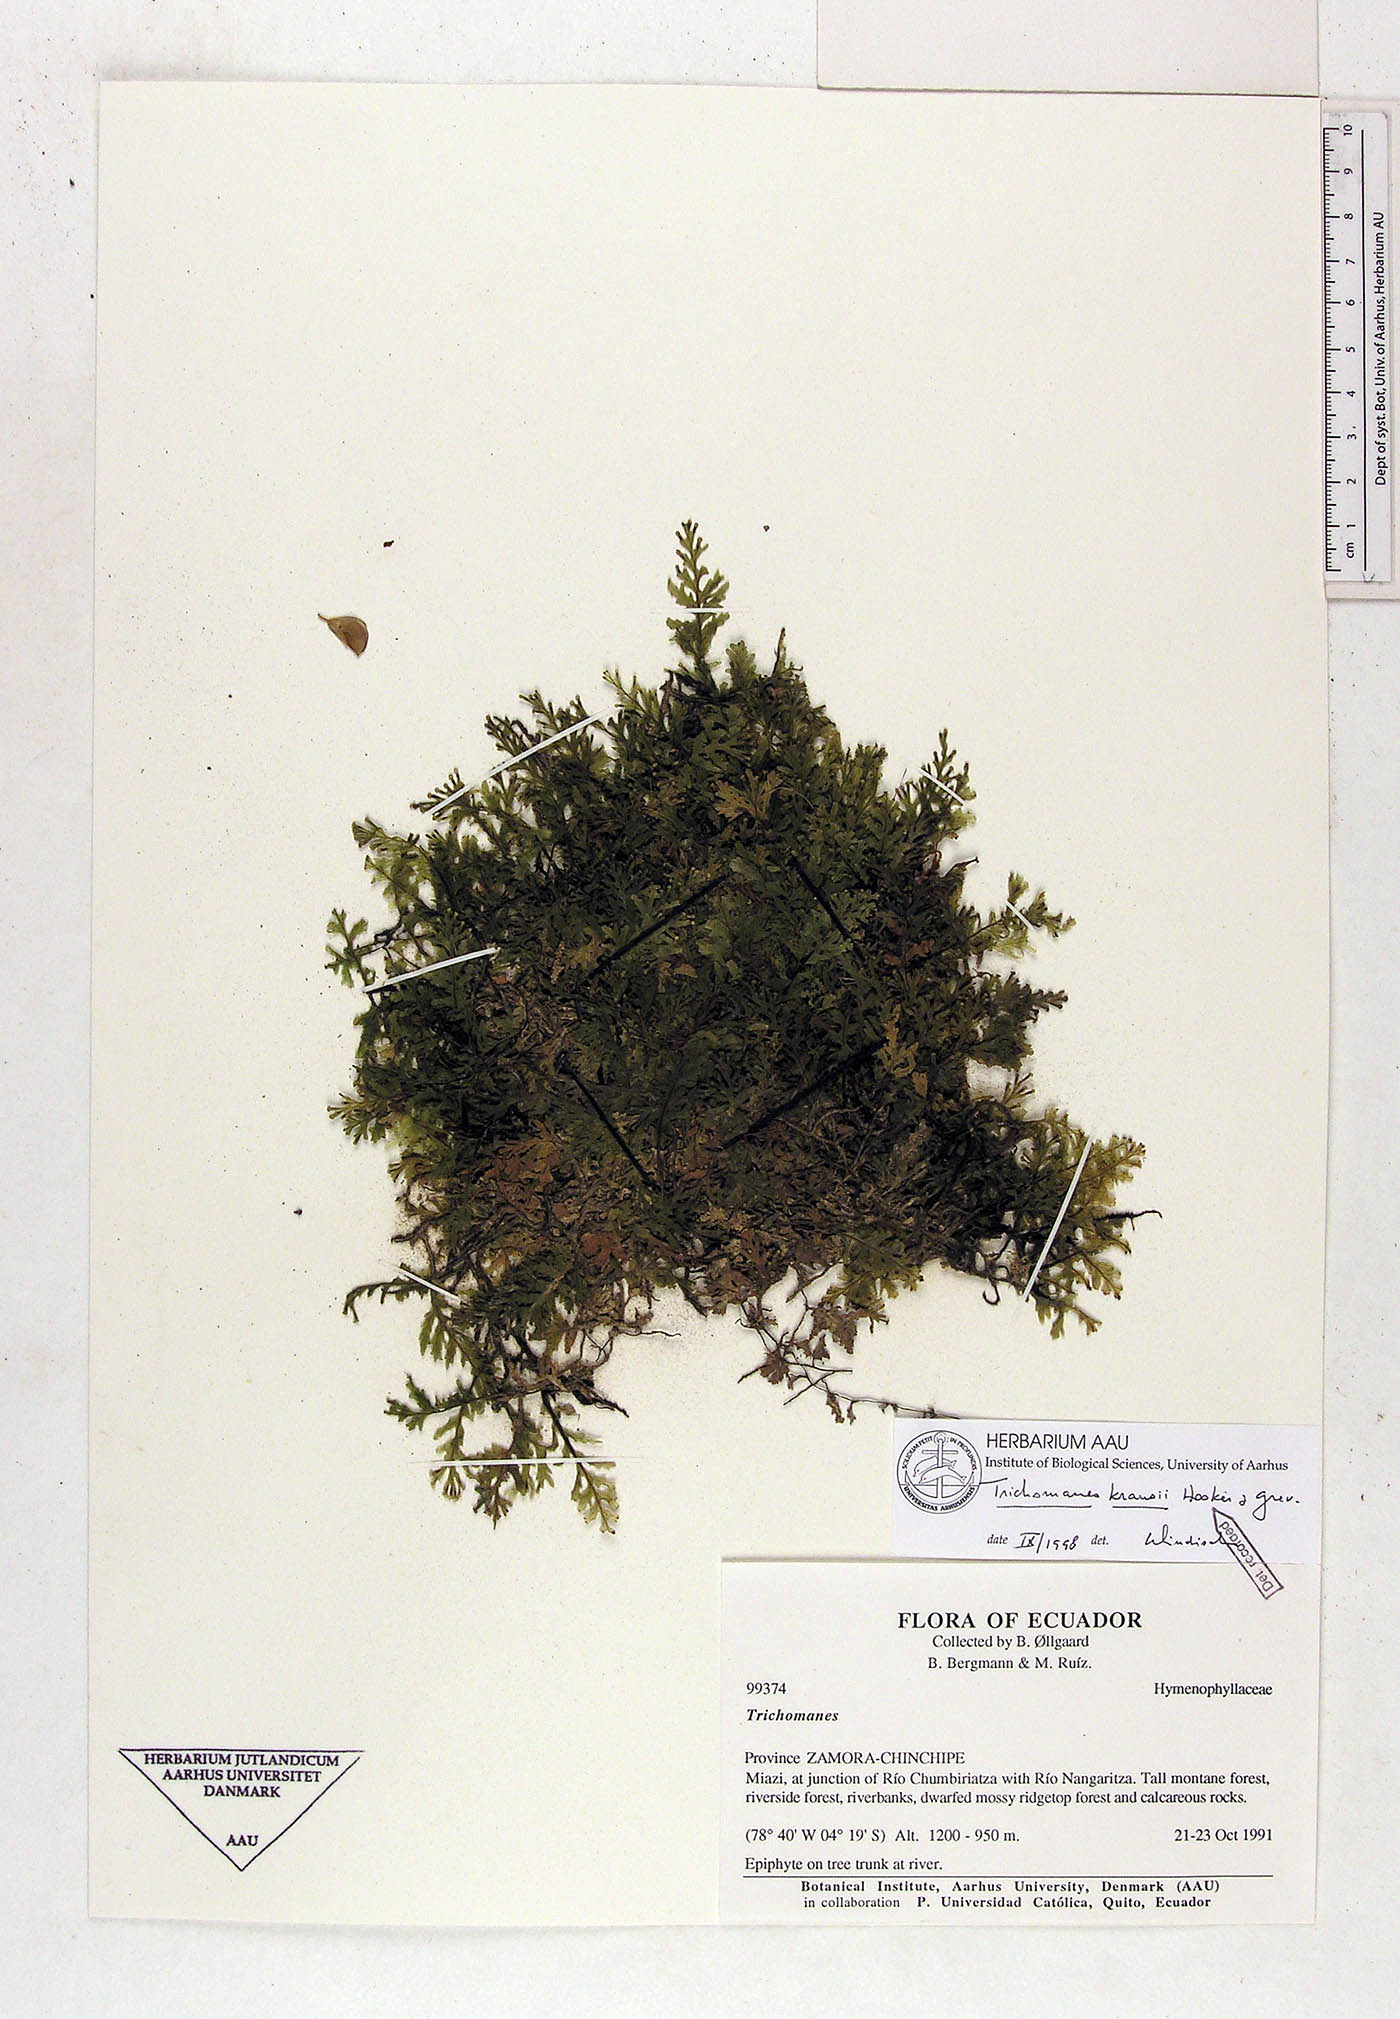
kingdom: Plantae
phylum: Tracheophyta
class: Polypodiopsida
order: Hymenophyllales
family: Hymenophyllaceae
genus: Didymoglossum
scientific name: Didymoglossum kraussii
